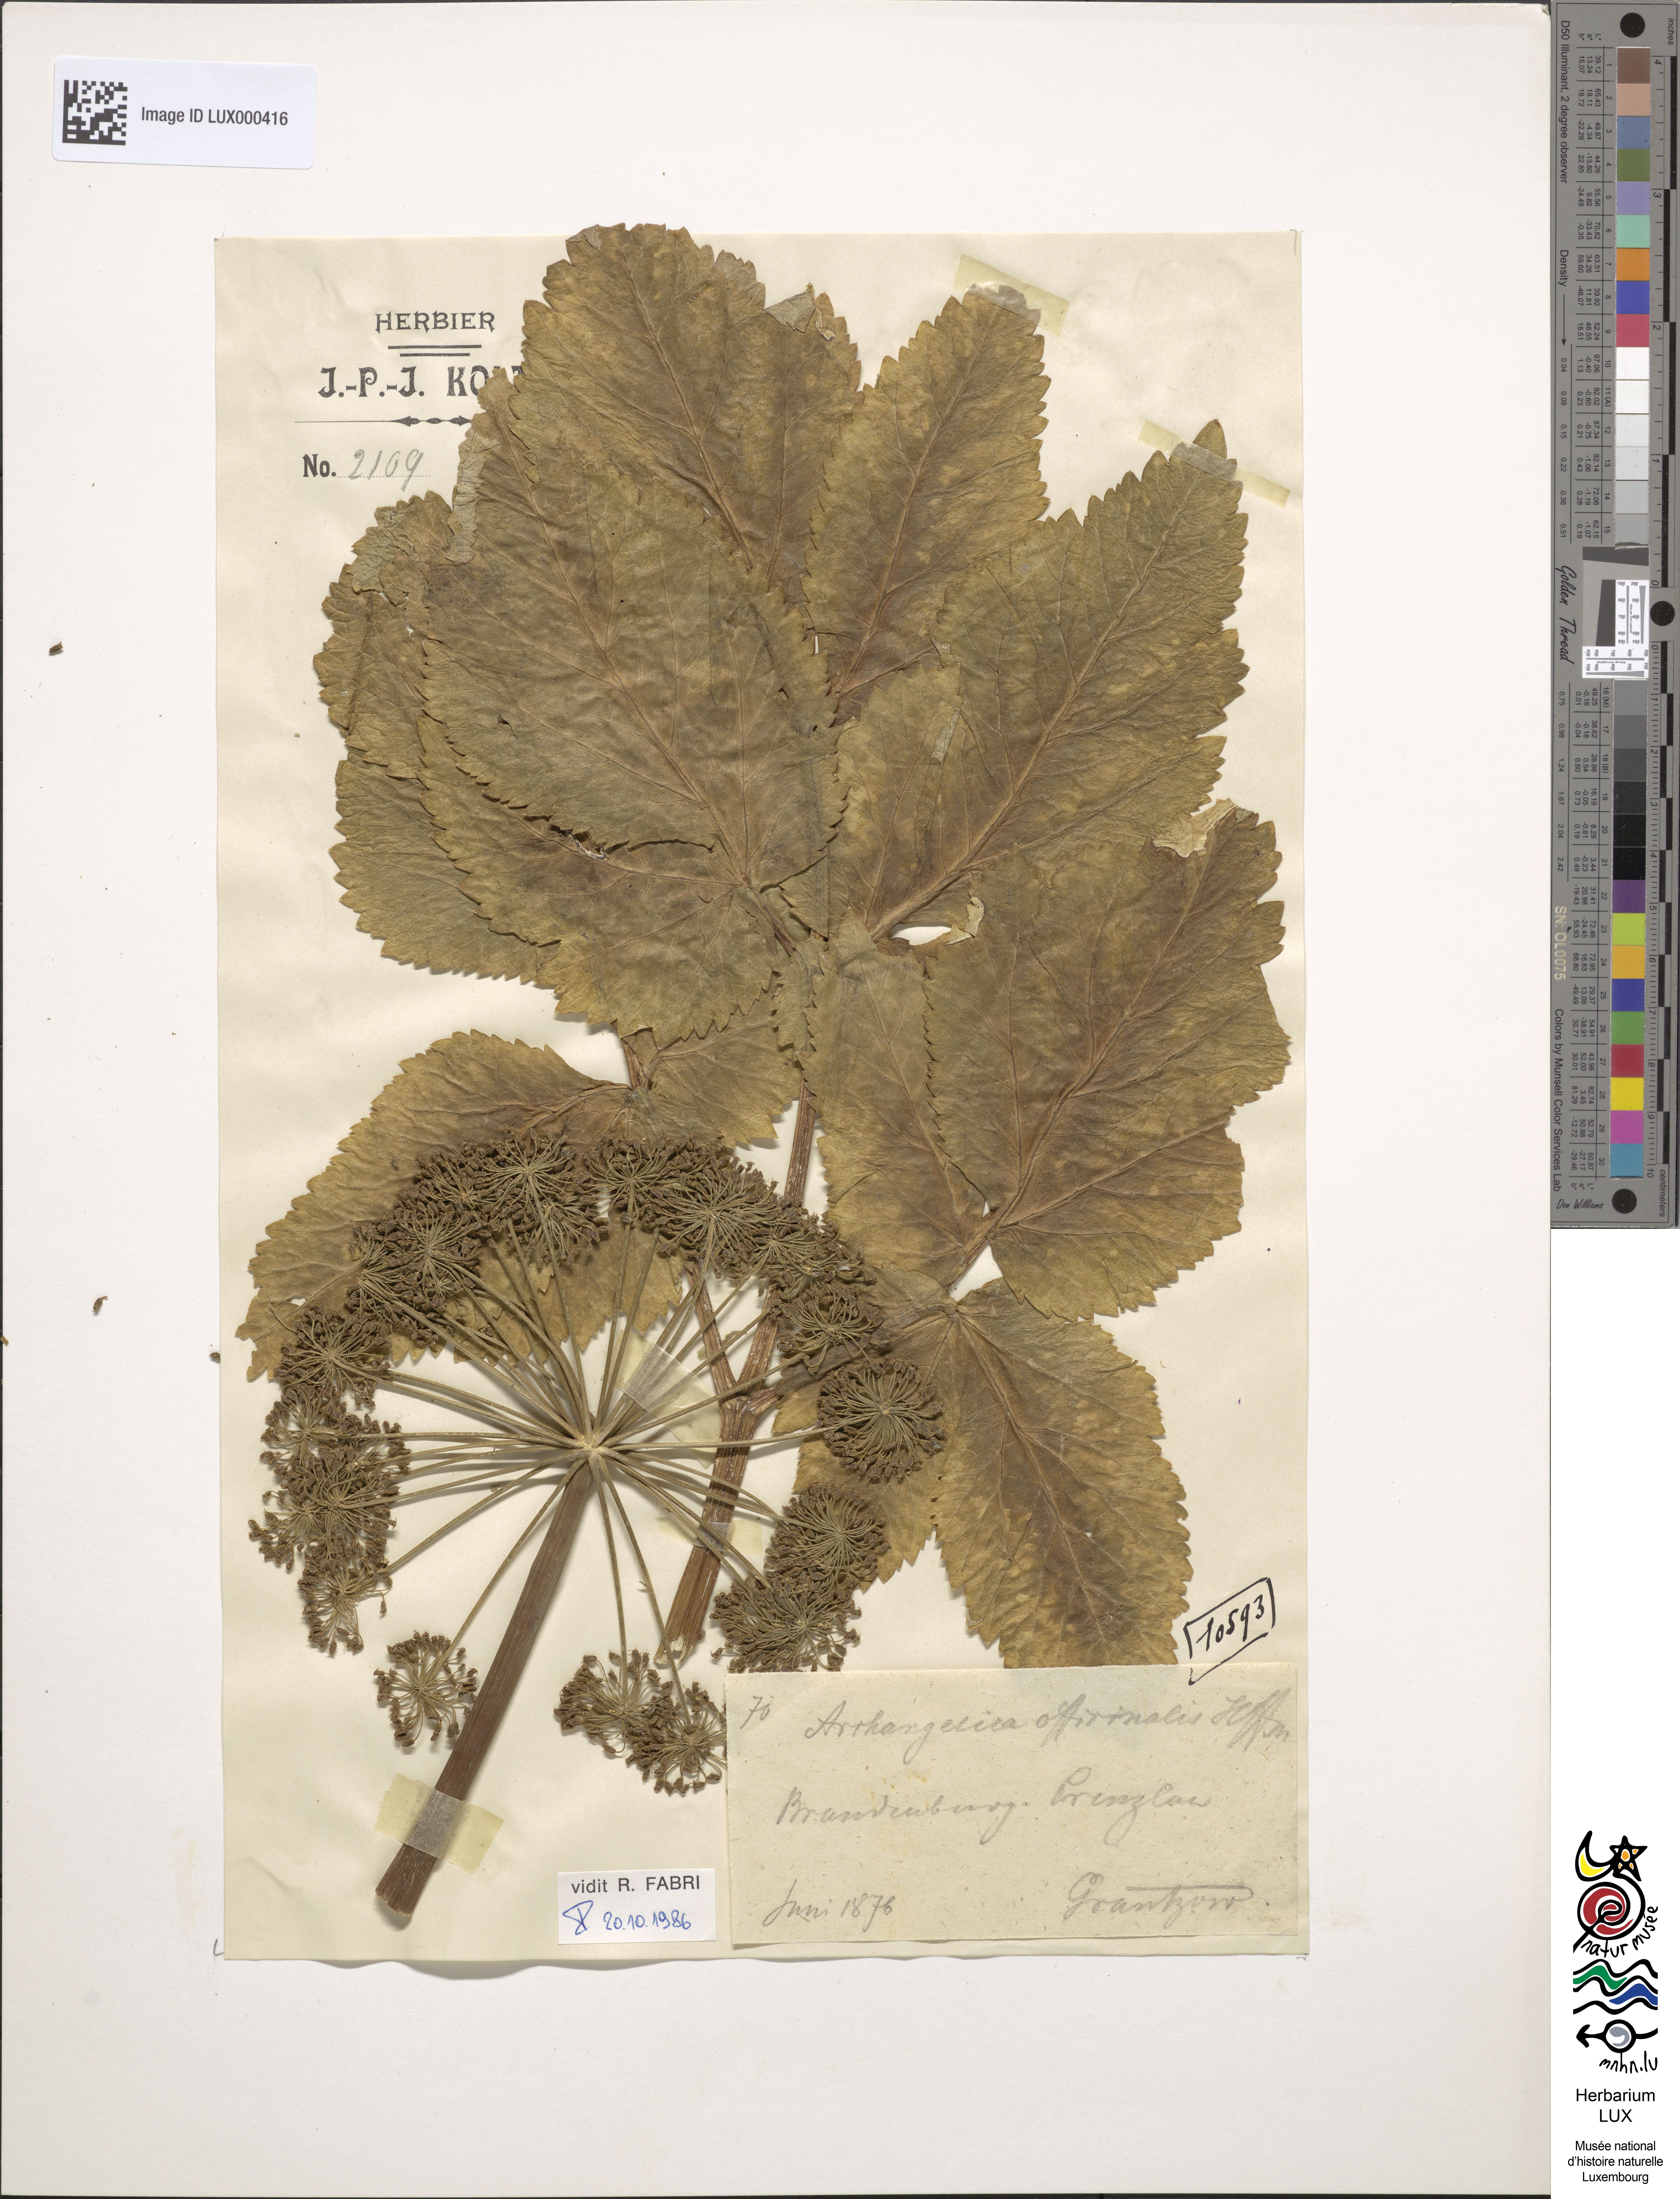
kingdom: Plantae
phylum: Tracheophyta
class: Magnoliopsida
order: Apiales
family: Apiaceae
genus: Angelica
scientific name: Angelica archangelica
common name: Garden angelica
